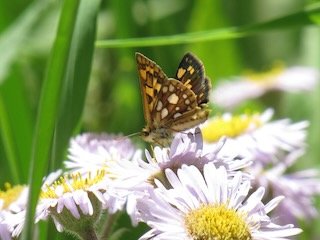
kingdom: Animalia
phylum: Arthropoda
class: Insecta
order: Lepidoptera
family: Hesperiidae
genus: Carterocephalus
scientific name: Carterocephalus palaemon
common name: Chequered Skipper
